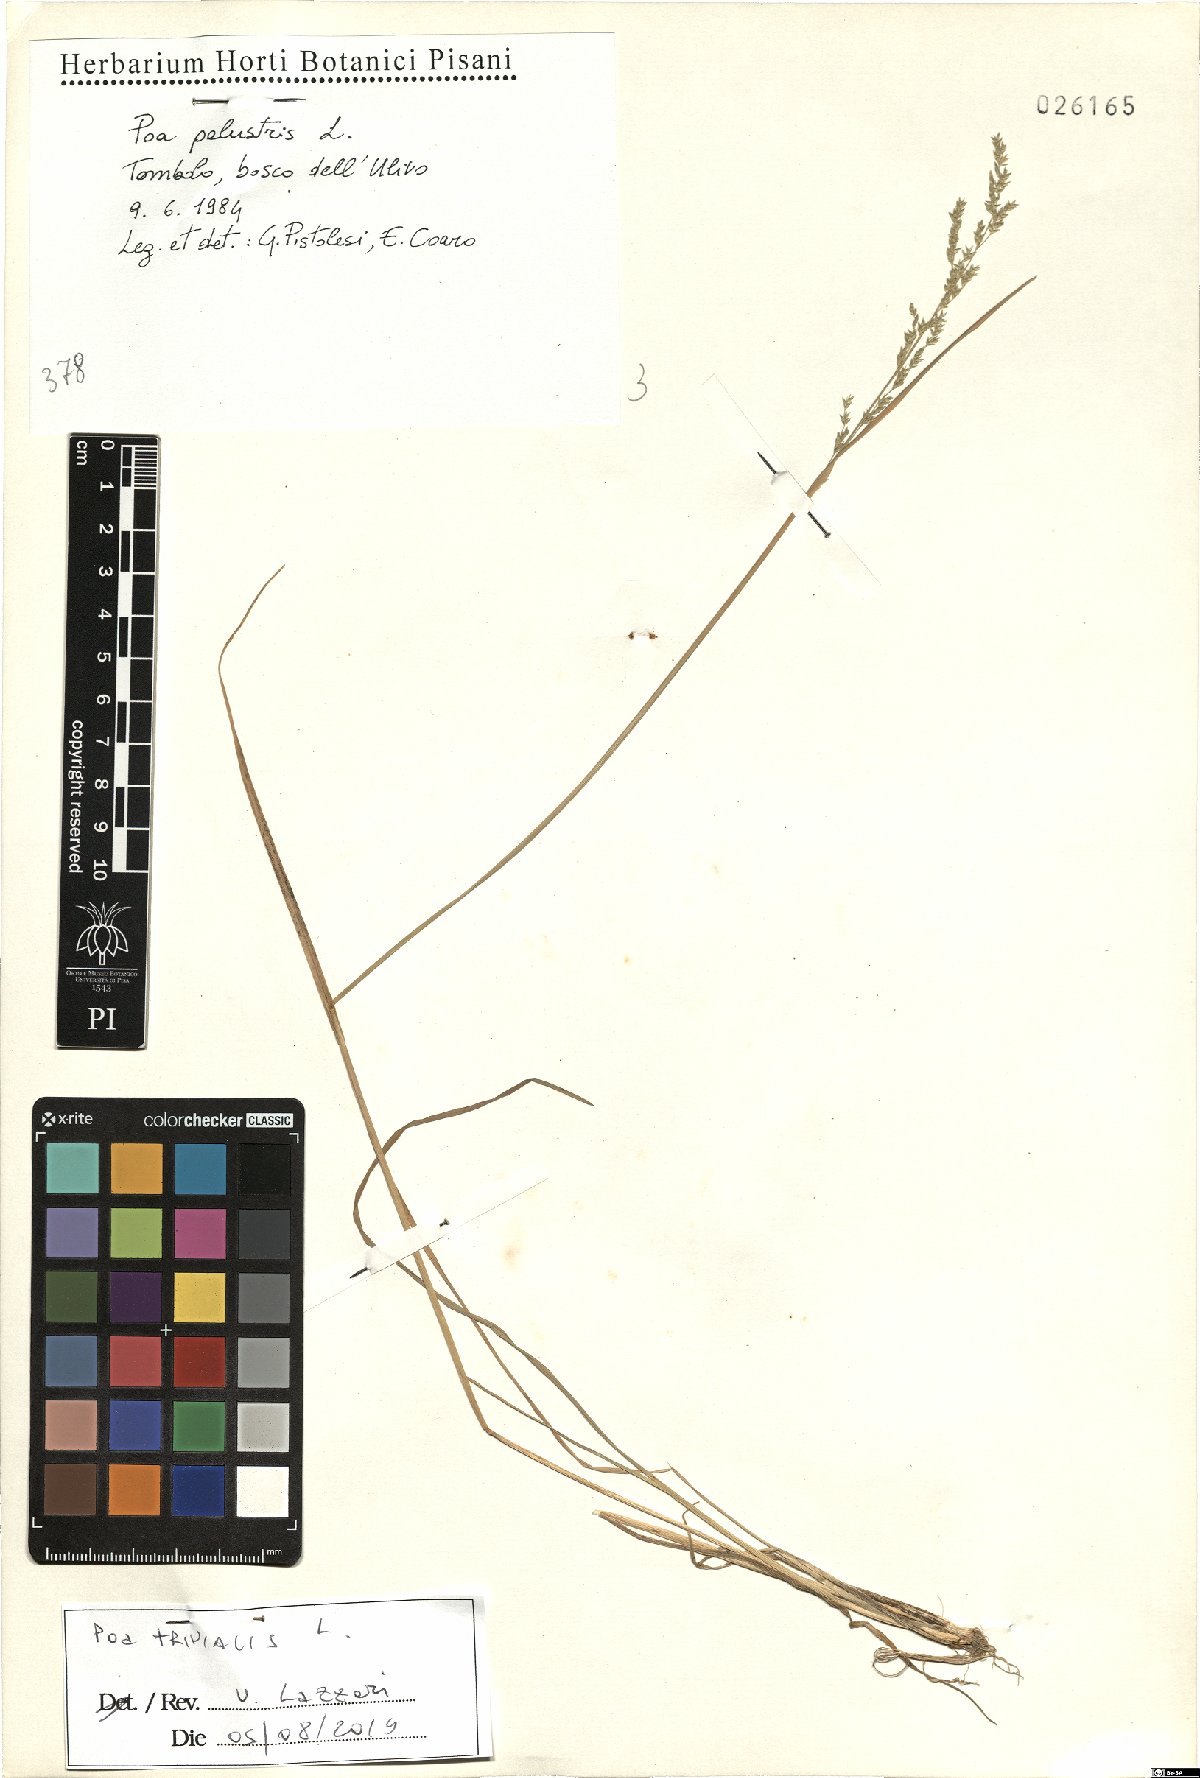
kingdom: Plantae
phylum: Tracheophyta
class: Liliopsida
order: Poales
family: Poaceae
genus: Poa
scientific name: Poa trivialis
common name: Rough bluegrass
